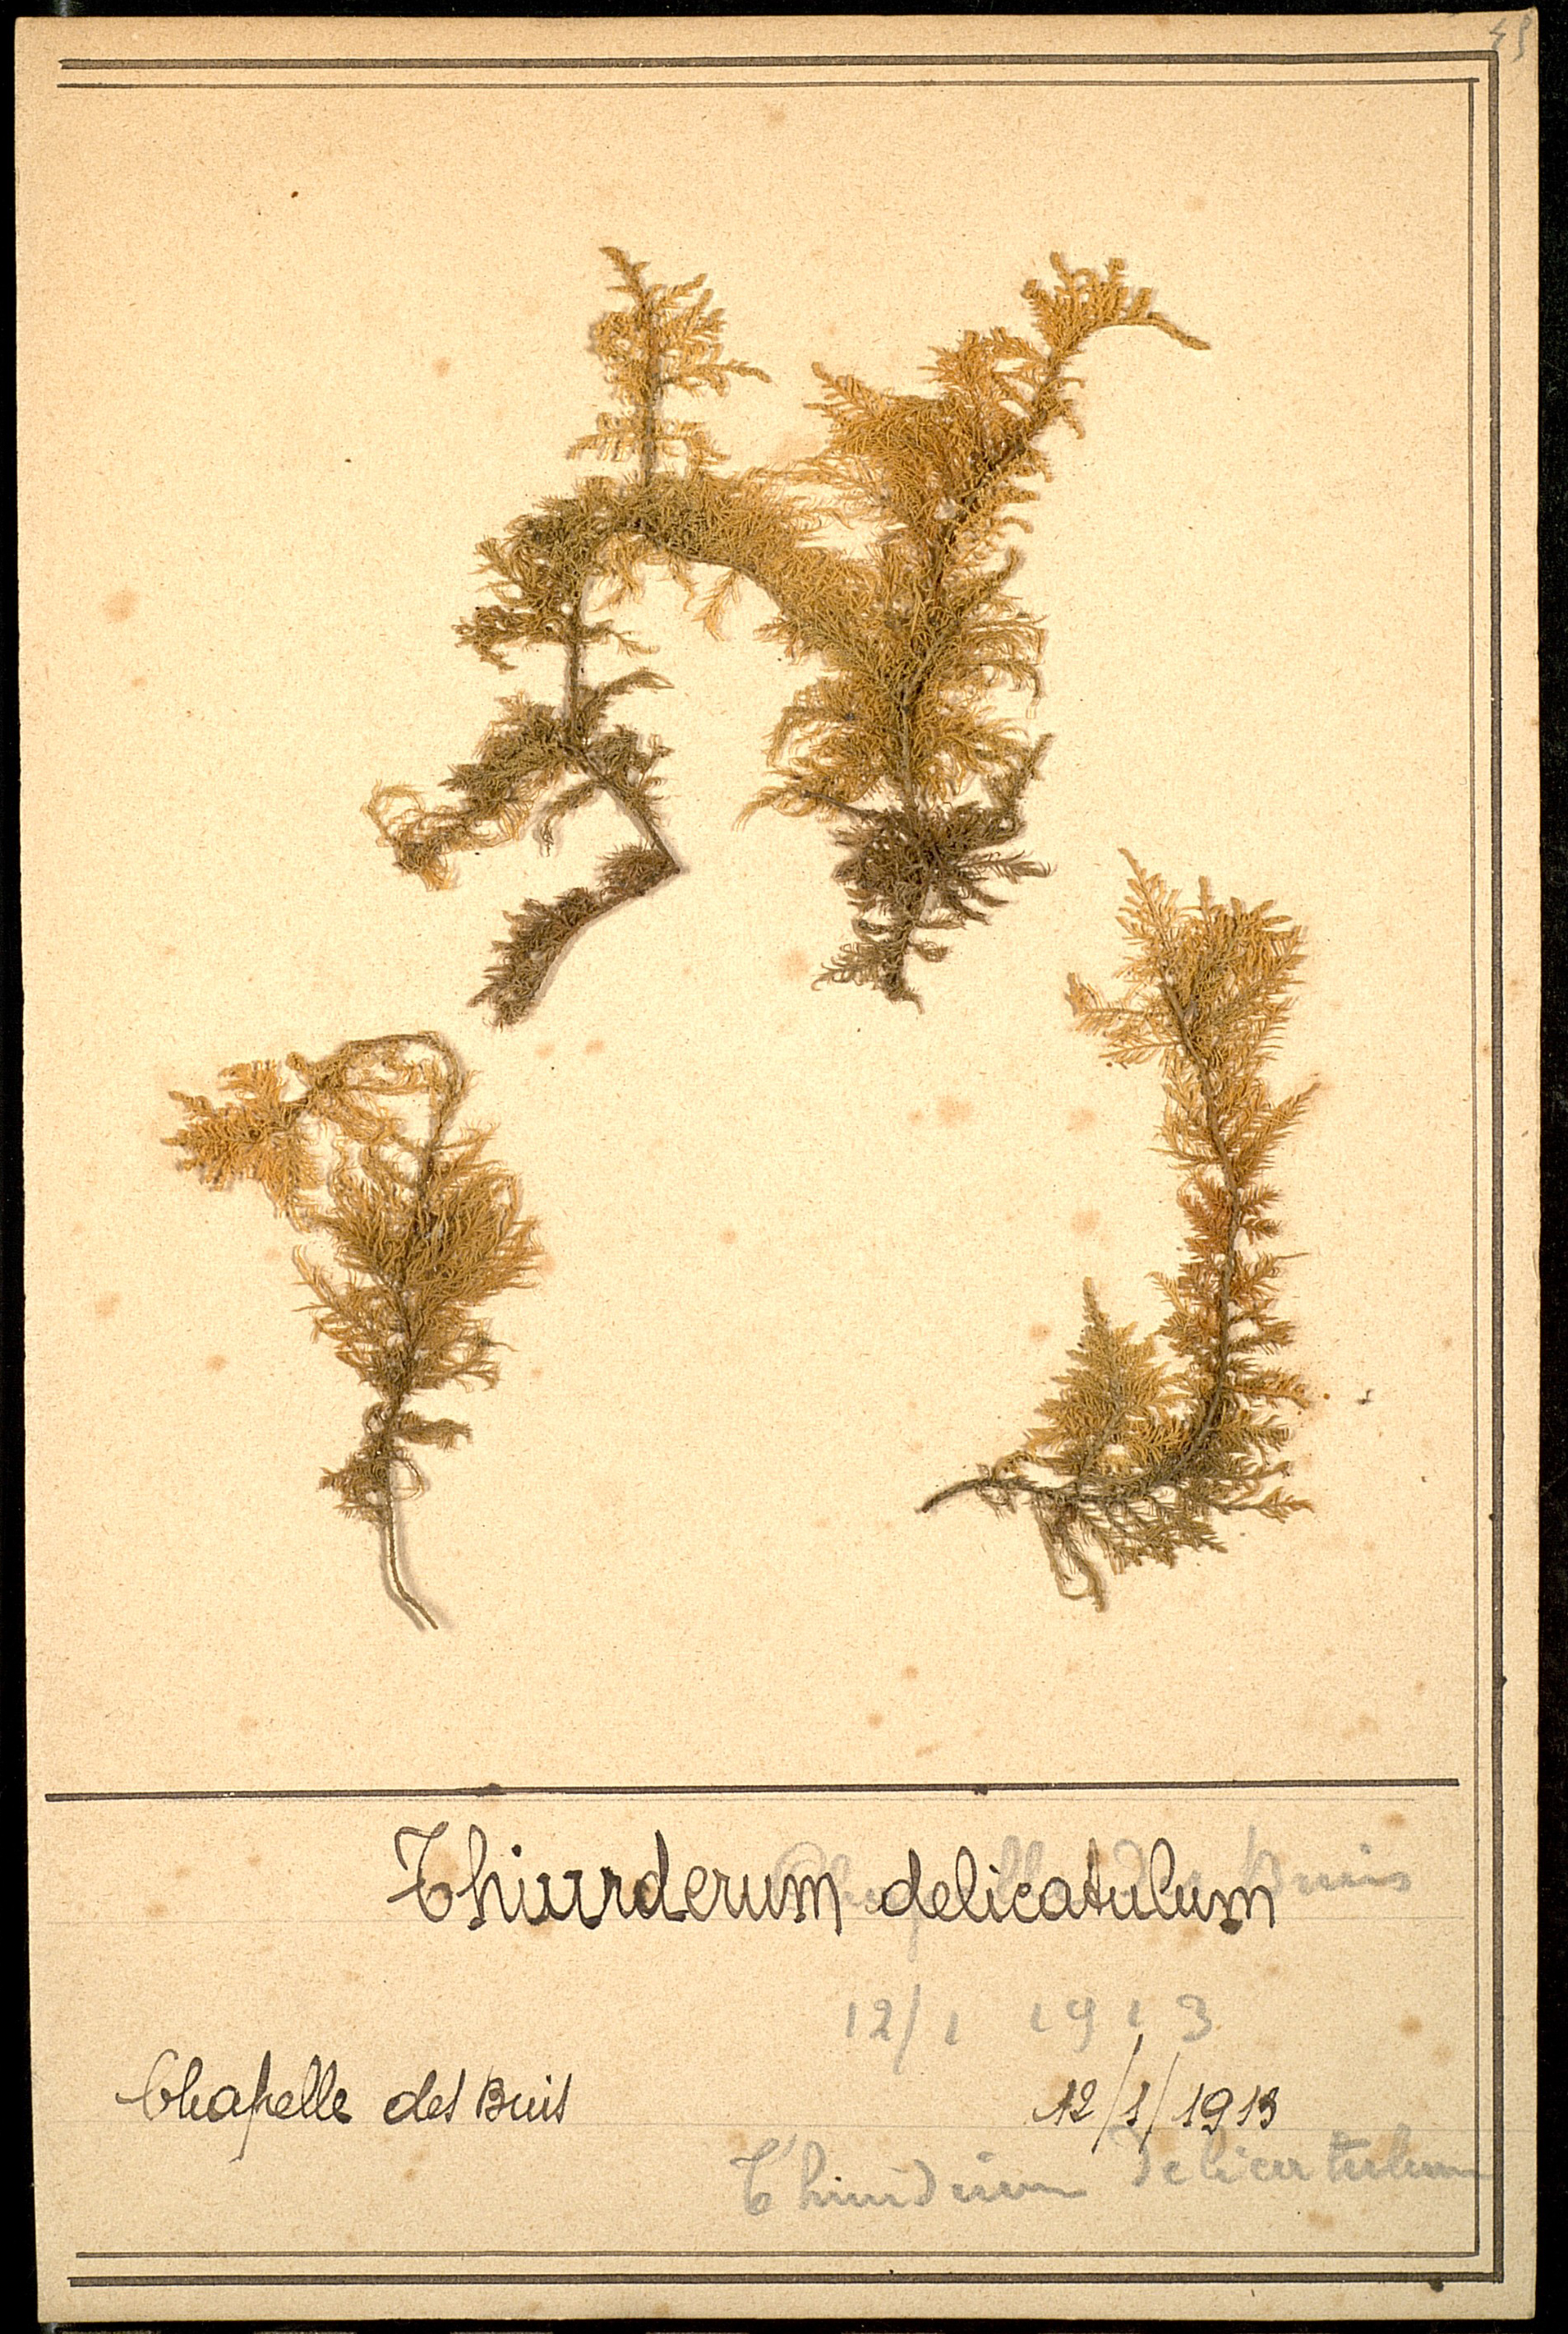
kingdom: Plantae
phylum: Bryophyta
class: Bryopsida
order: Hypnales
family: Thuidiaceae
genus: Thuidium
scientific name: Thuidium delicatulum
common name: Delicate fern moss
